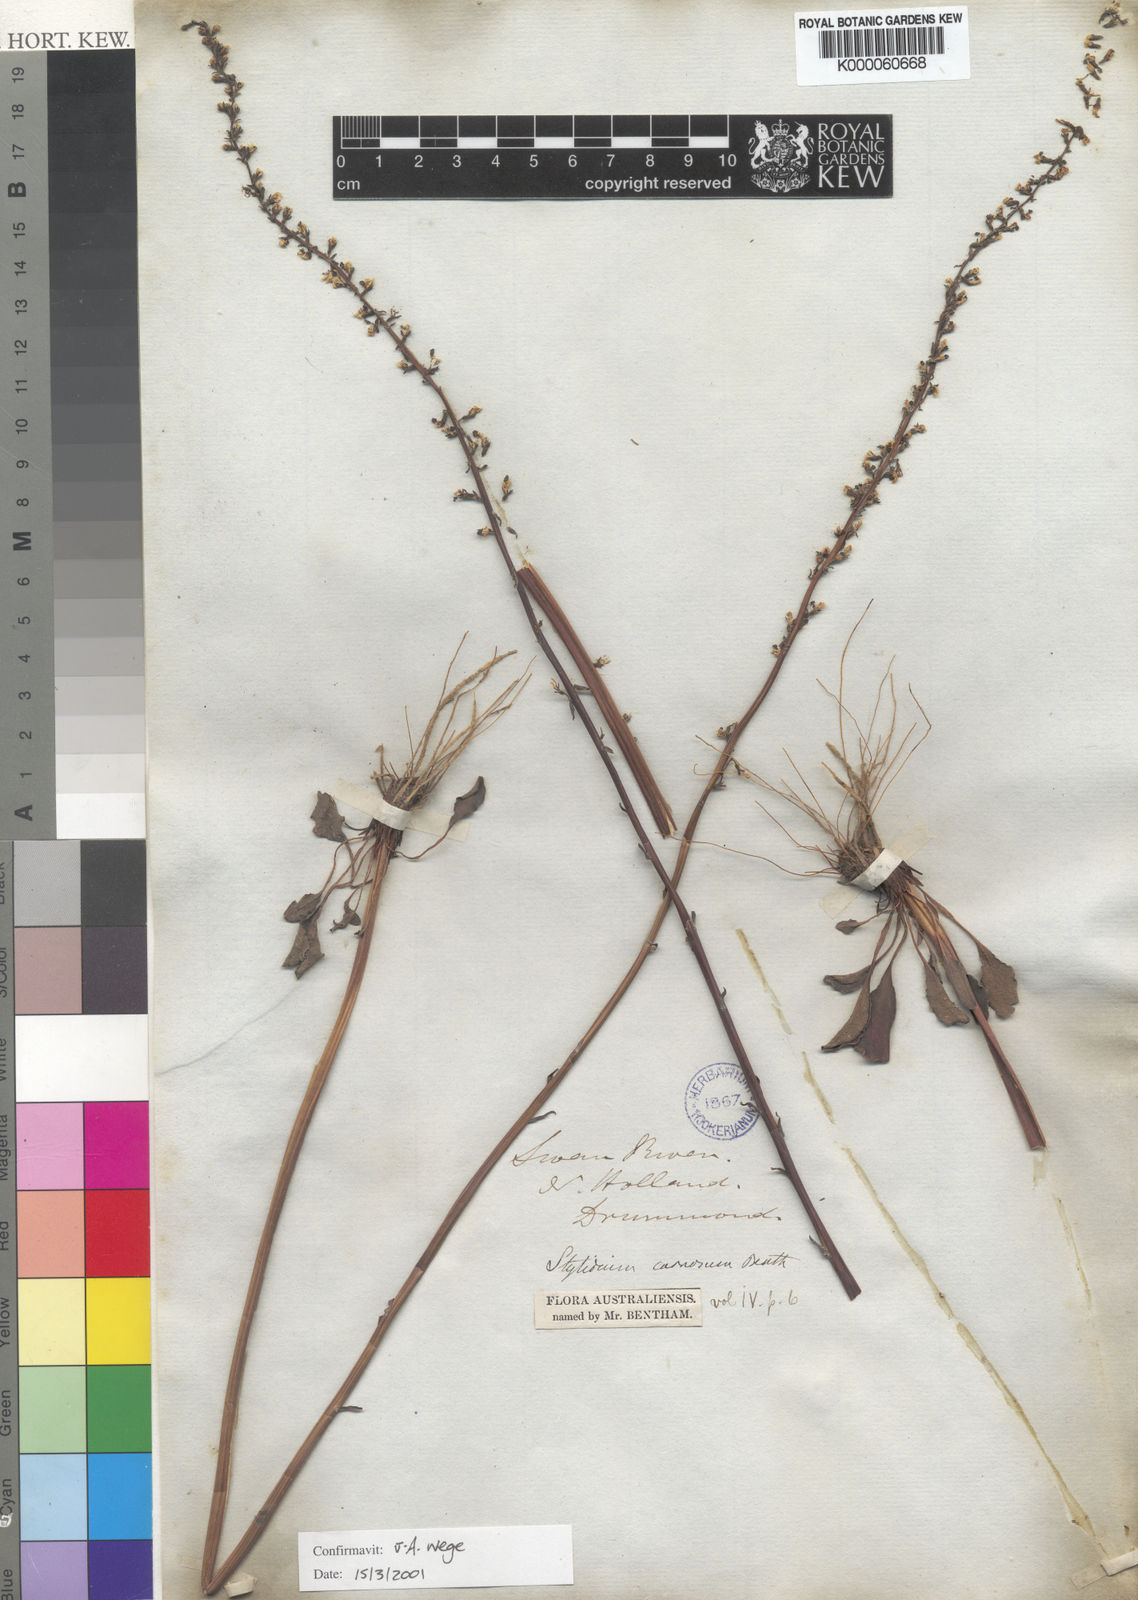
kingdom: Plantae
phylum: Tracheophyta
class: Magnoliopsida
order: Asterales
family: Stylidiaceae
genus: Stylidium
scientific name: Stylidium carnosum
